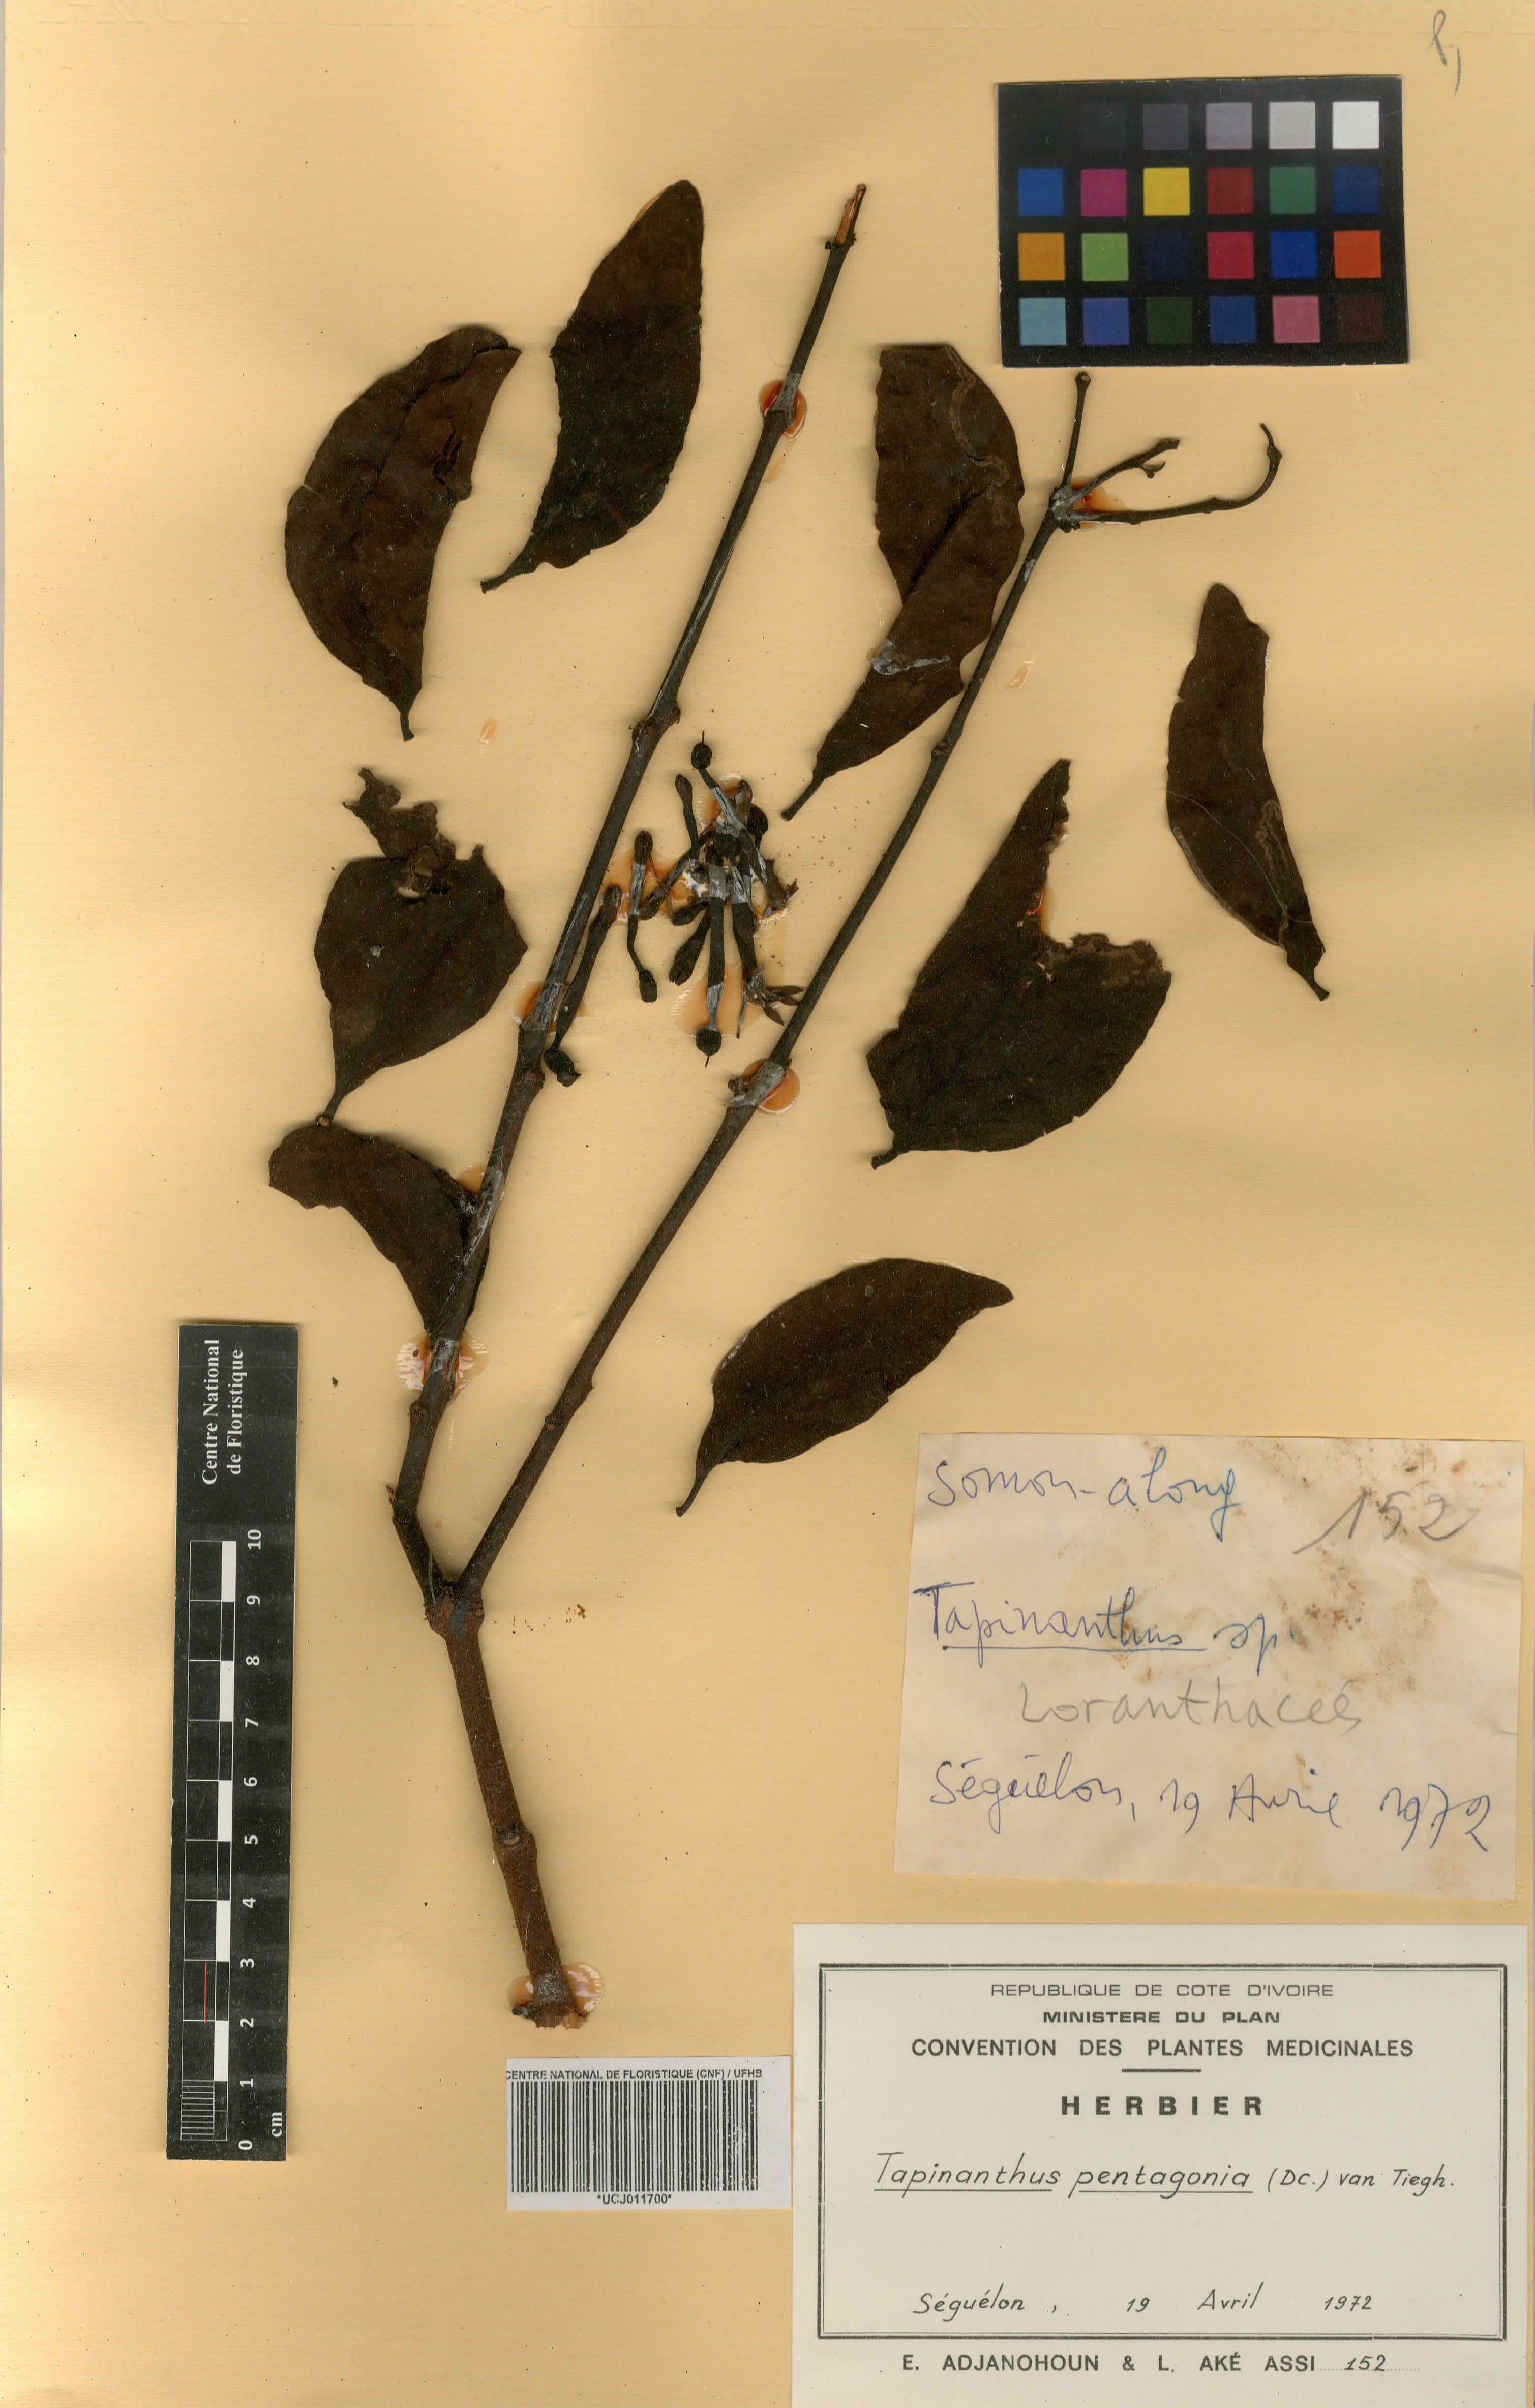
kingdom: Plantae
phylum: Tracheophyta
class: Magnoliopsida
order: Santalales
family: Loranthaceae
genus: Tapinanthus
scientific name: Tapinanthus pentagonia
